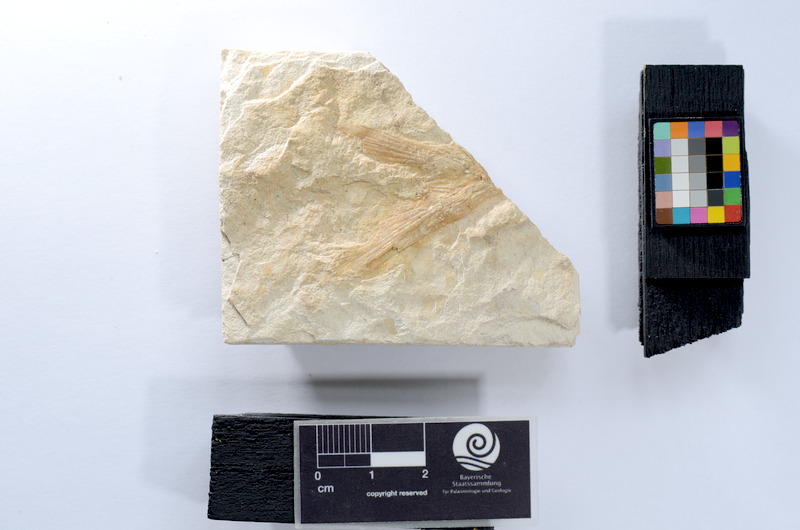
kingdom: Animalia
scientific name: Animalia
